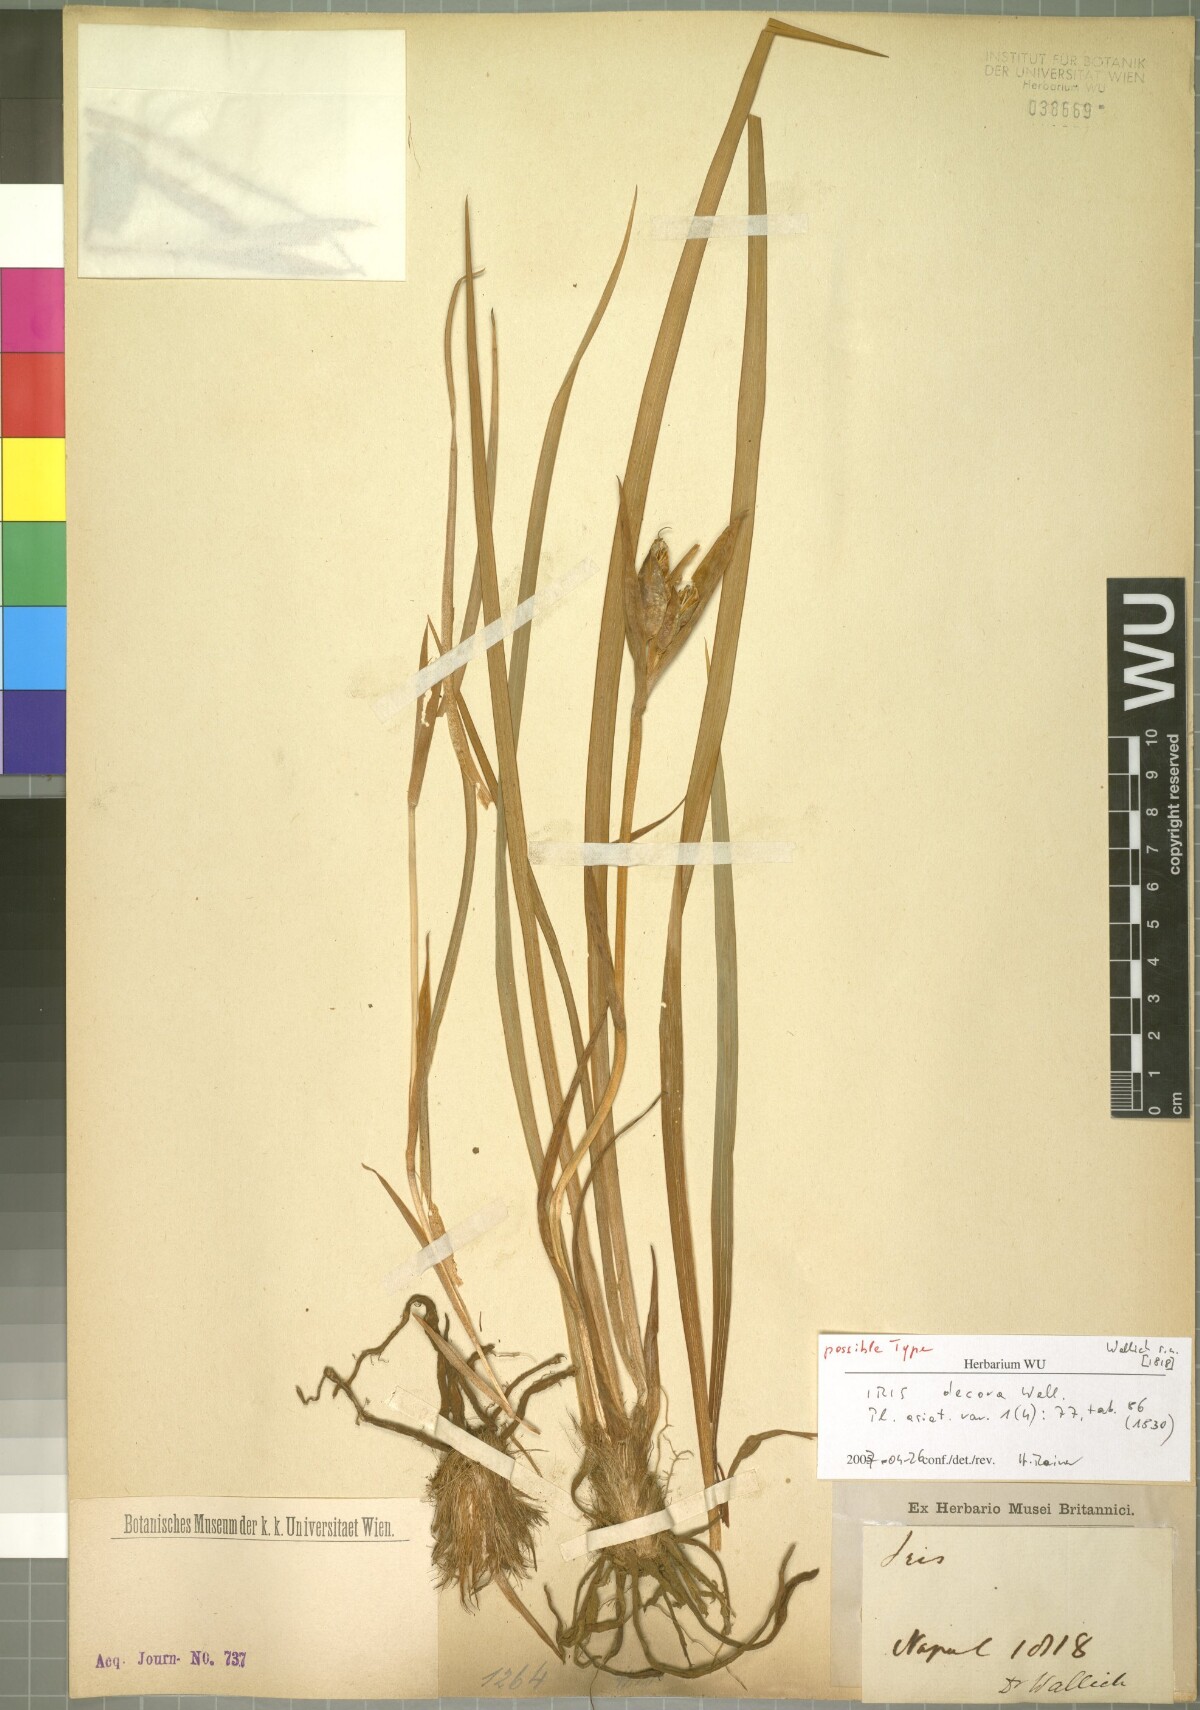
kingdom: Plantae
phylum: Tracheophyta
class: Liliopsida
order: Asparagales
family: Iridaceae
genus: Iris
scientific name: Iris decora
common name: Nepal iris
